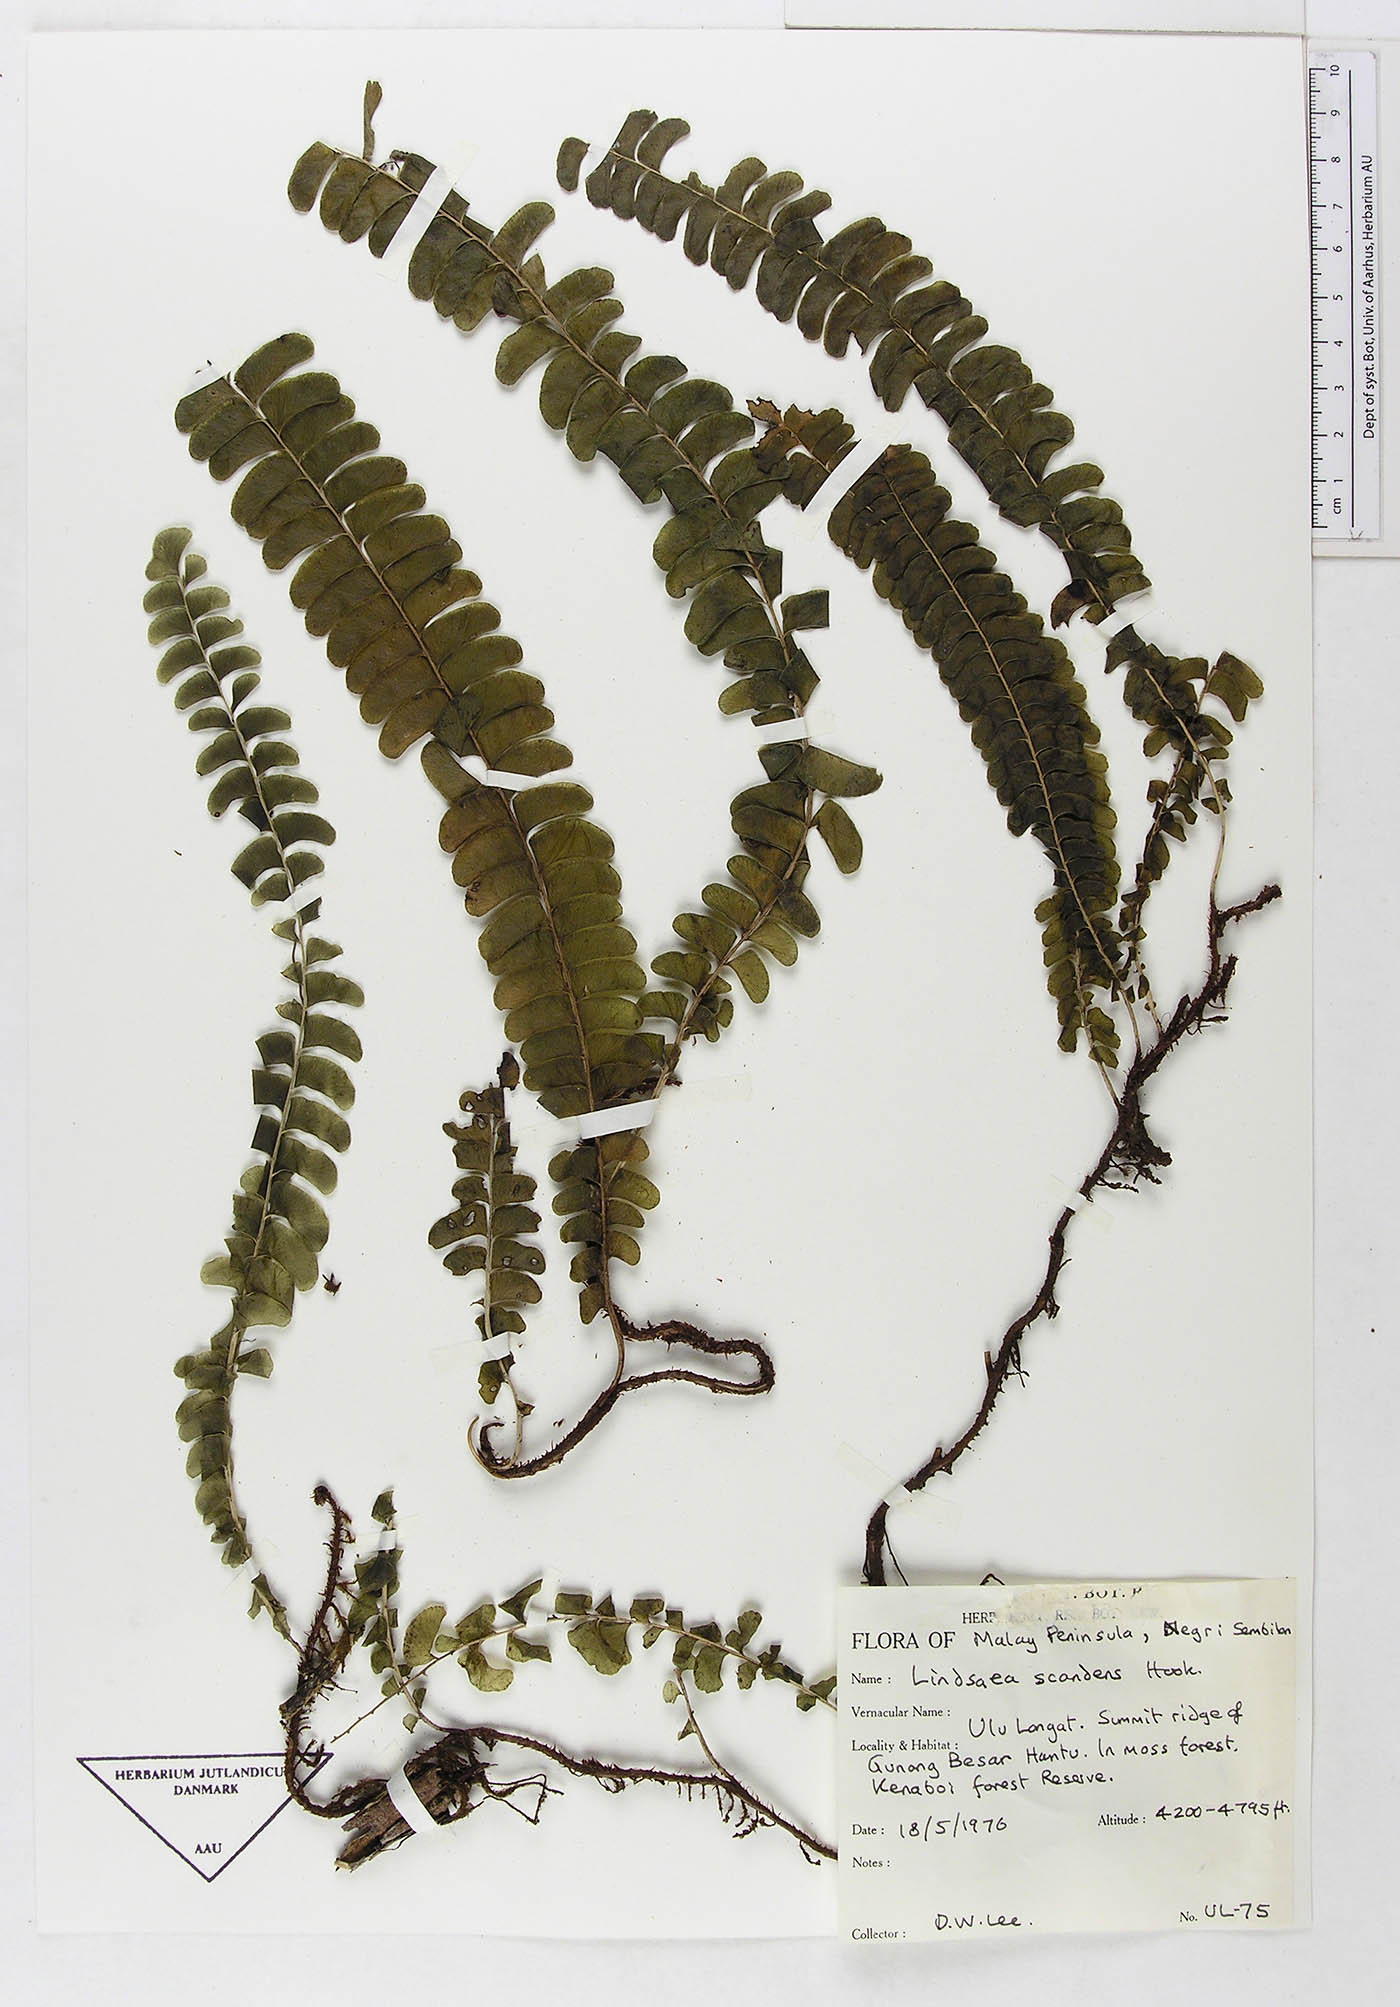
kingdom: Plantae
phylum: Tracheophyta
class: Polypodiopsida
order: Polypodiales
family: Lindsaeaceae
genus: Nesolindsaea
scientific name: Nesolindsaea caudata
